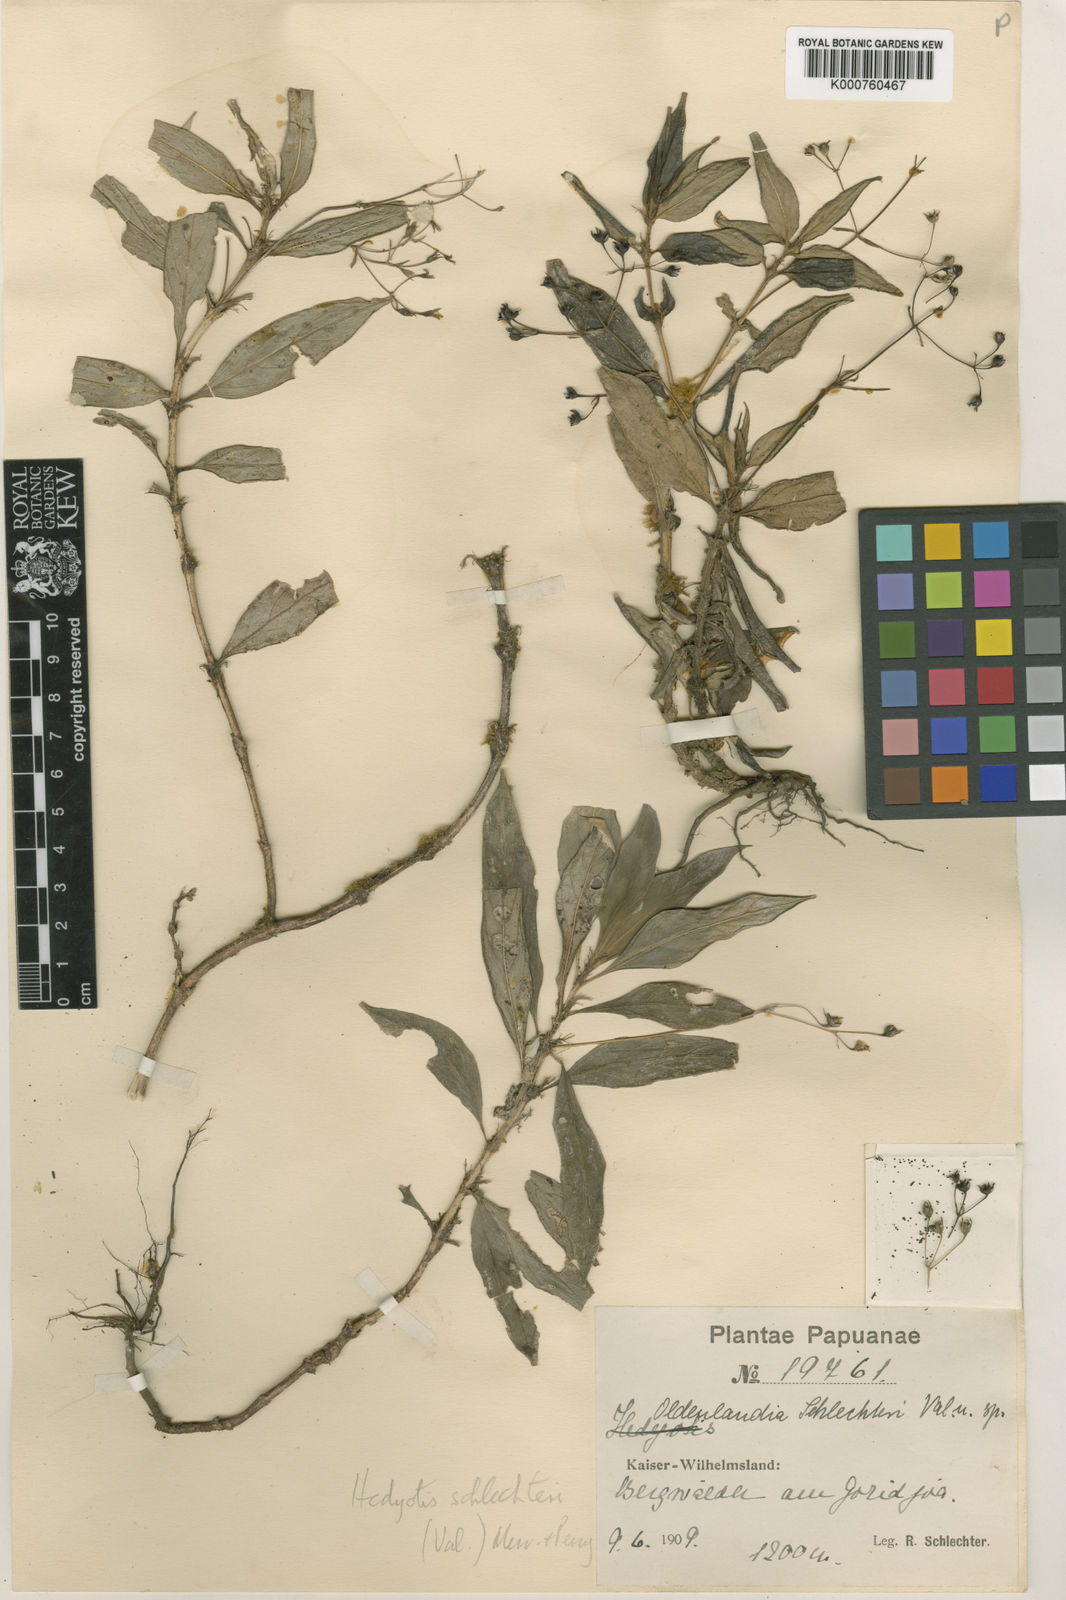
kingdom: Plantae
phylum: Tracheophyta
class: Magnoliopsida
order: Gentianales
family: Rubiaceae
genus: Hedyotis
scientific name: Hedyotis schlechteri
